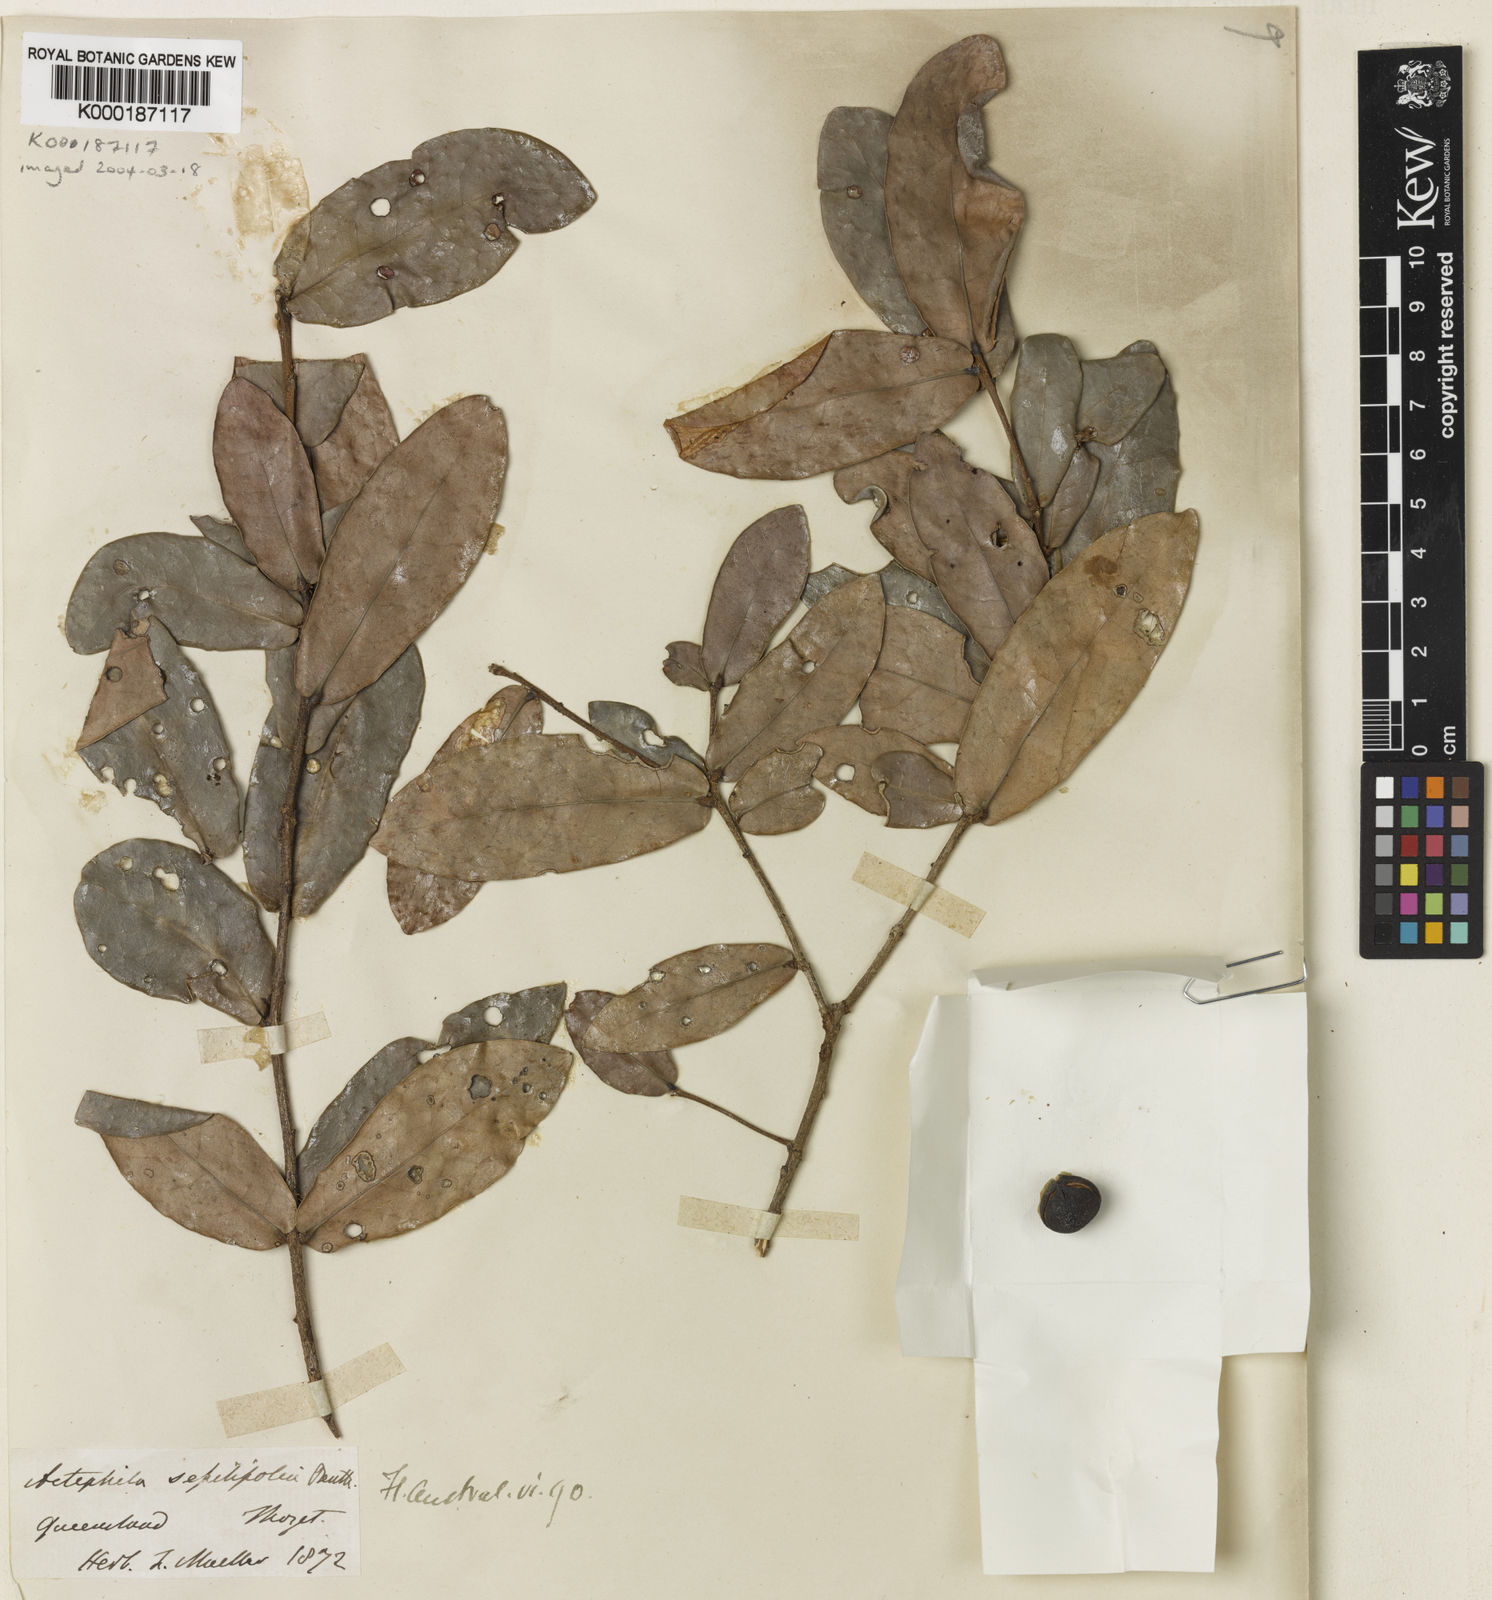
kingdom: Plantae
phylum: Tracheophyta
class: Magnoliopsida
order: Malpighiales
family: Phyllanthaceae
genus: Actephila
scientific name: Actephila sessilifolia
